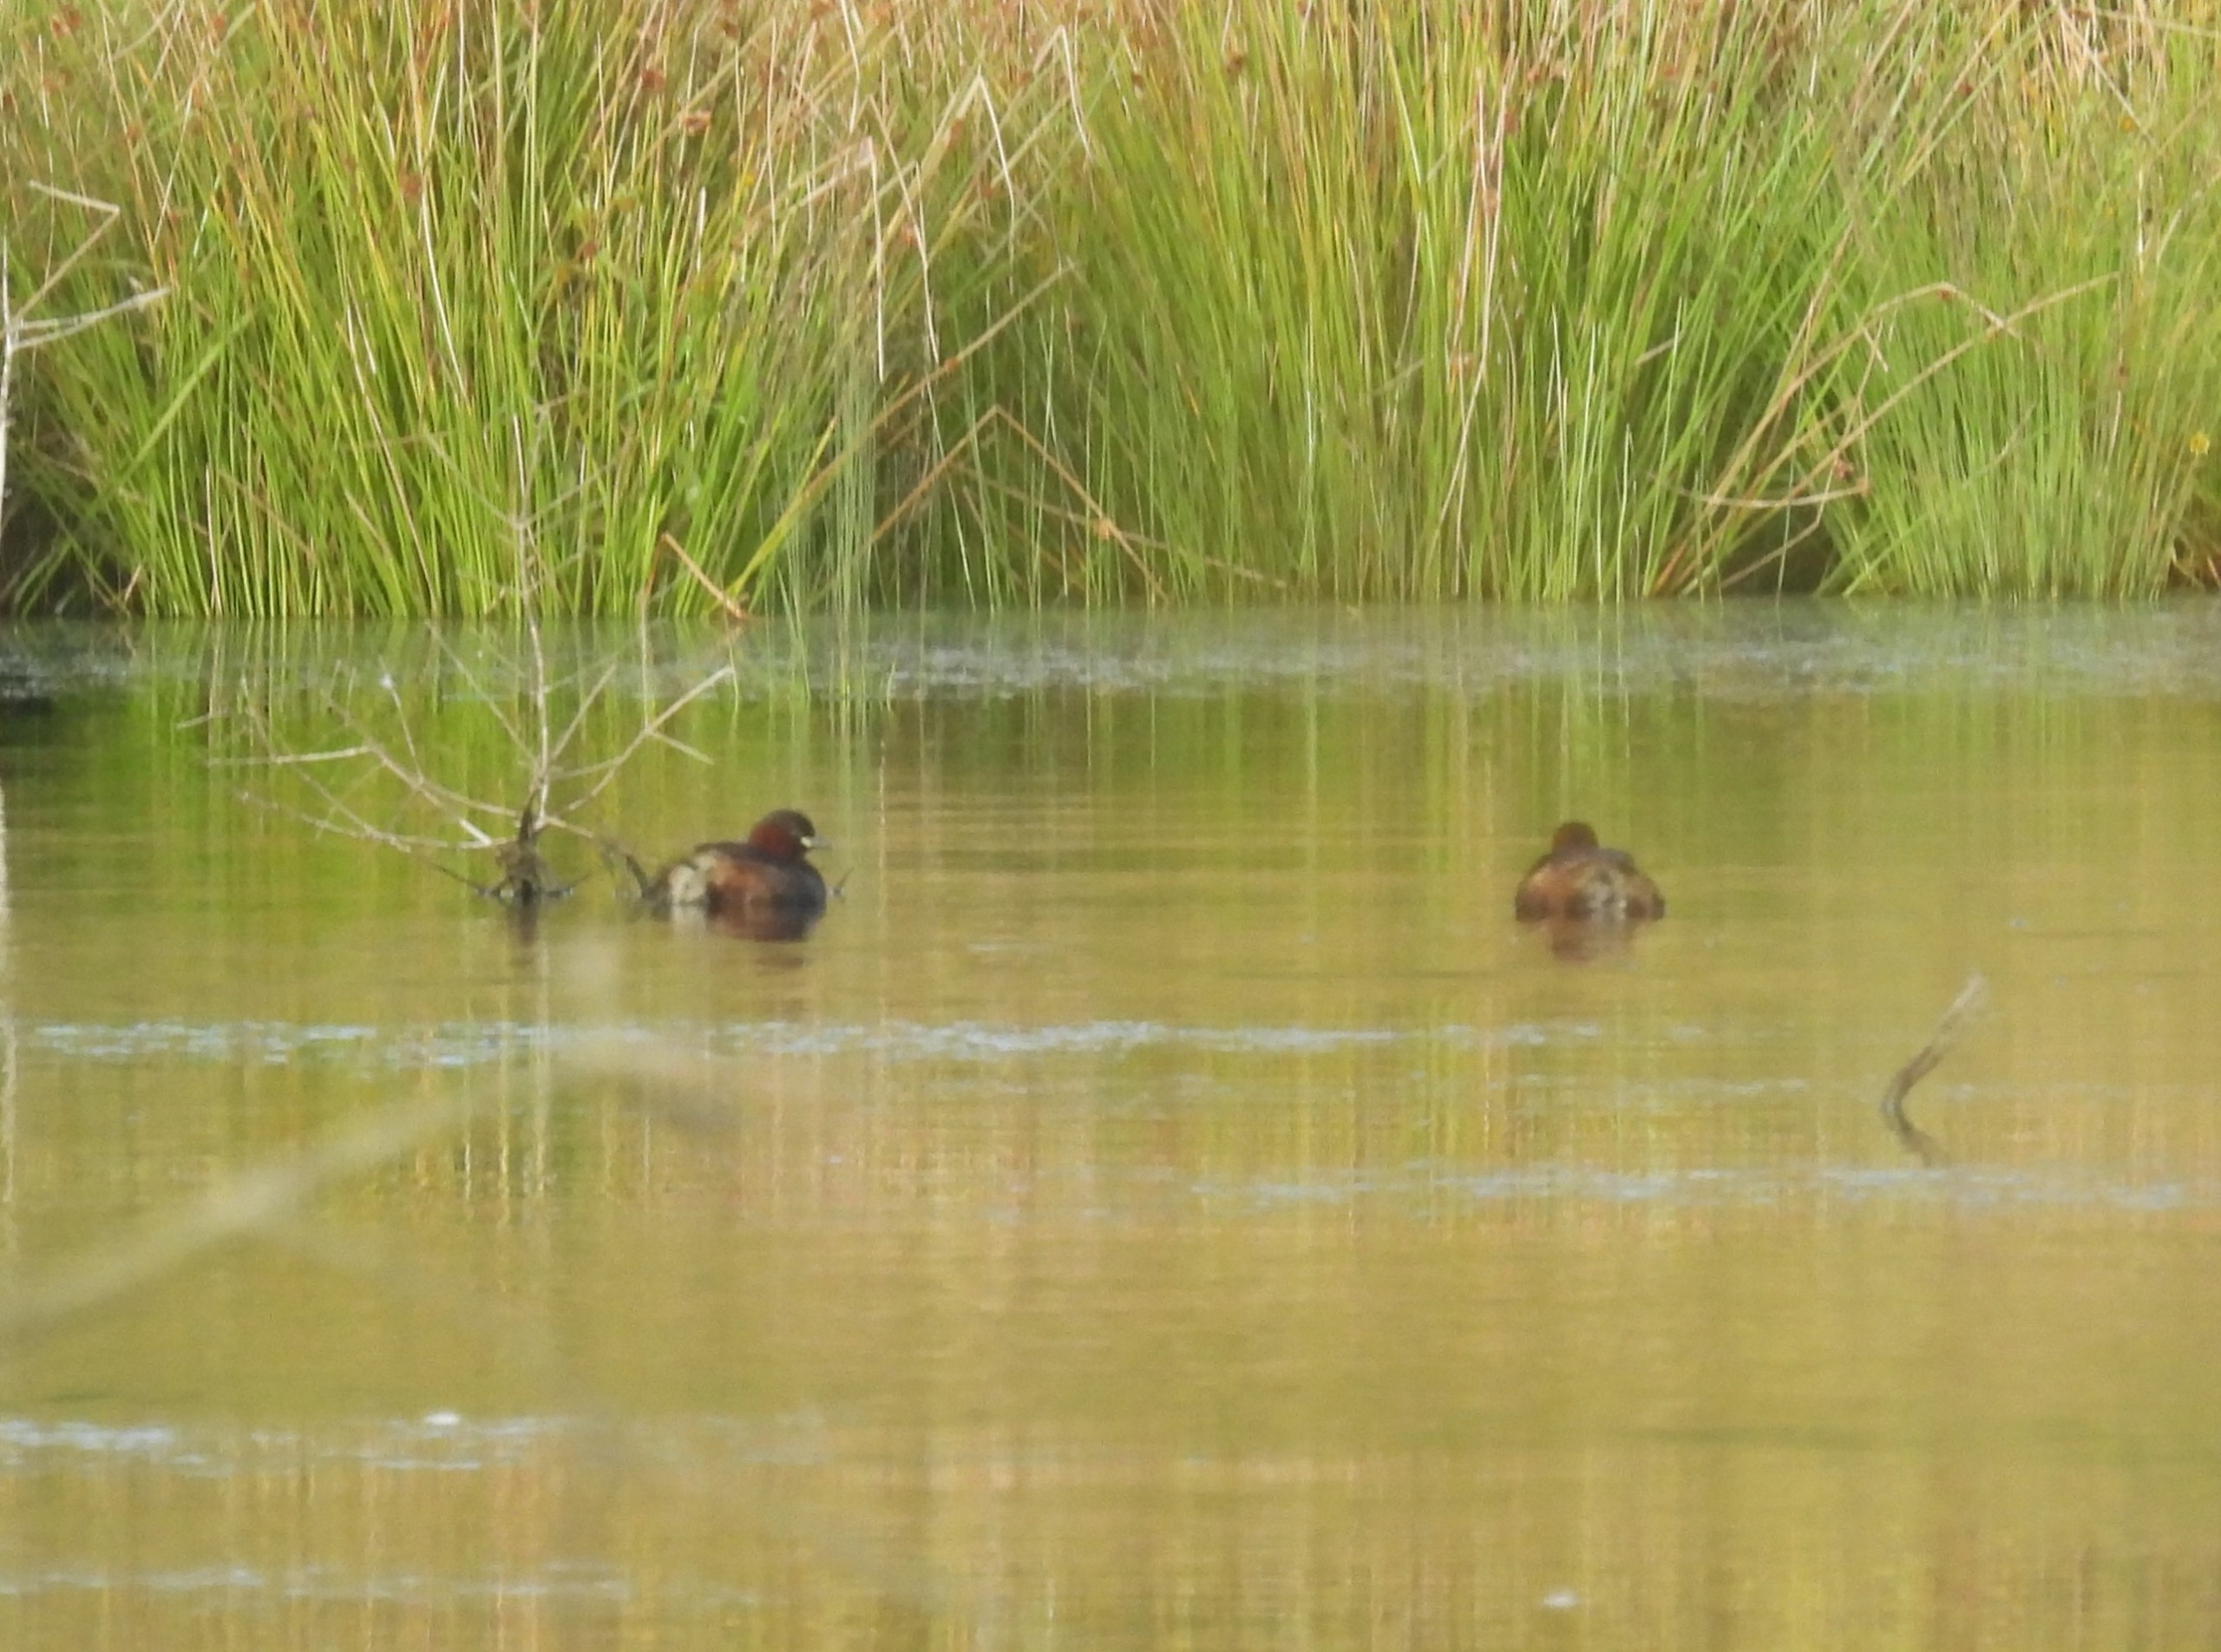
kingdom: Animalia
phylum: Chordata
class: Aves
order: Podicipediformes
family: Podicipedidae
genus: Tachybaptus
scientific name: Tachybaptus ruficollis
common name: Lille lappedykker
